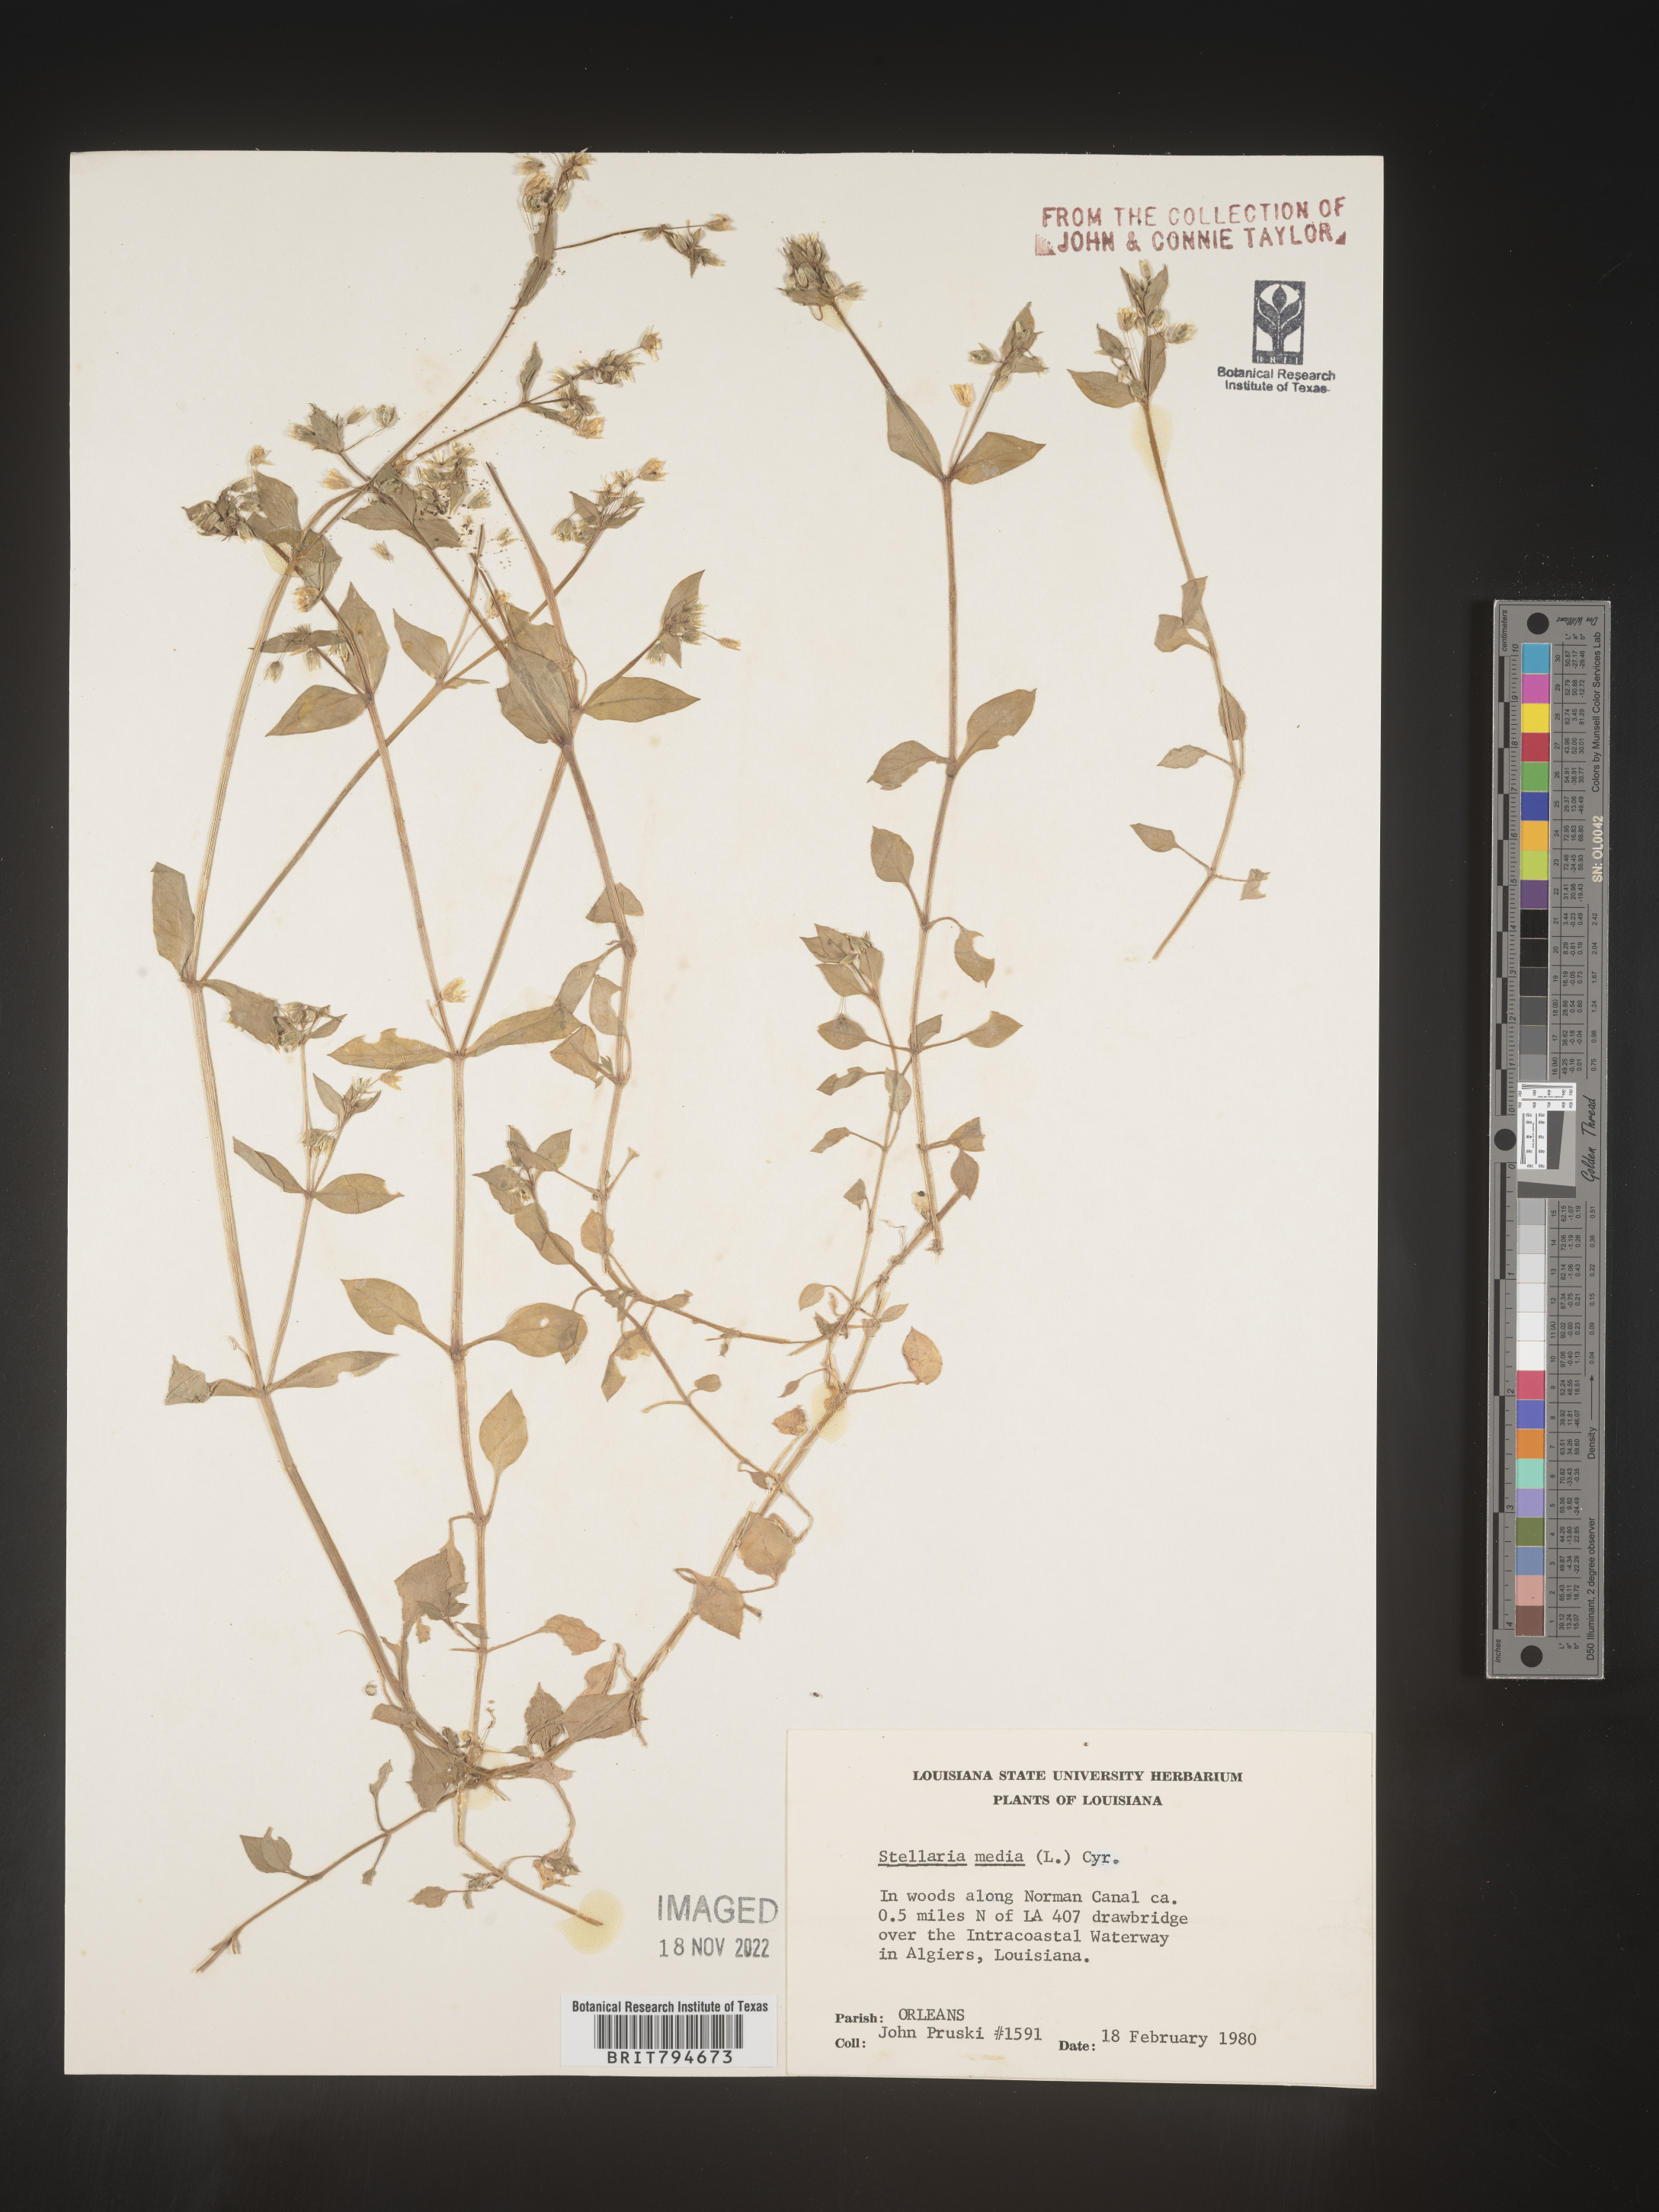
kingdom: Plantae
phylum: Tracheophyta
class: Magnoliopsida
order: Caryophyllales
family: Caryophyllaceae
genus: Stellaria
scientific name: Stellaria media
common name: Common chickweed
